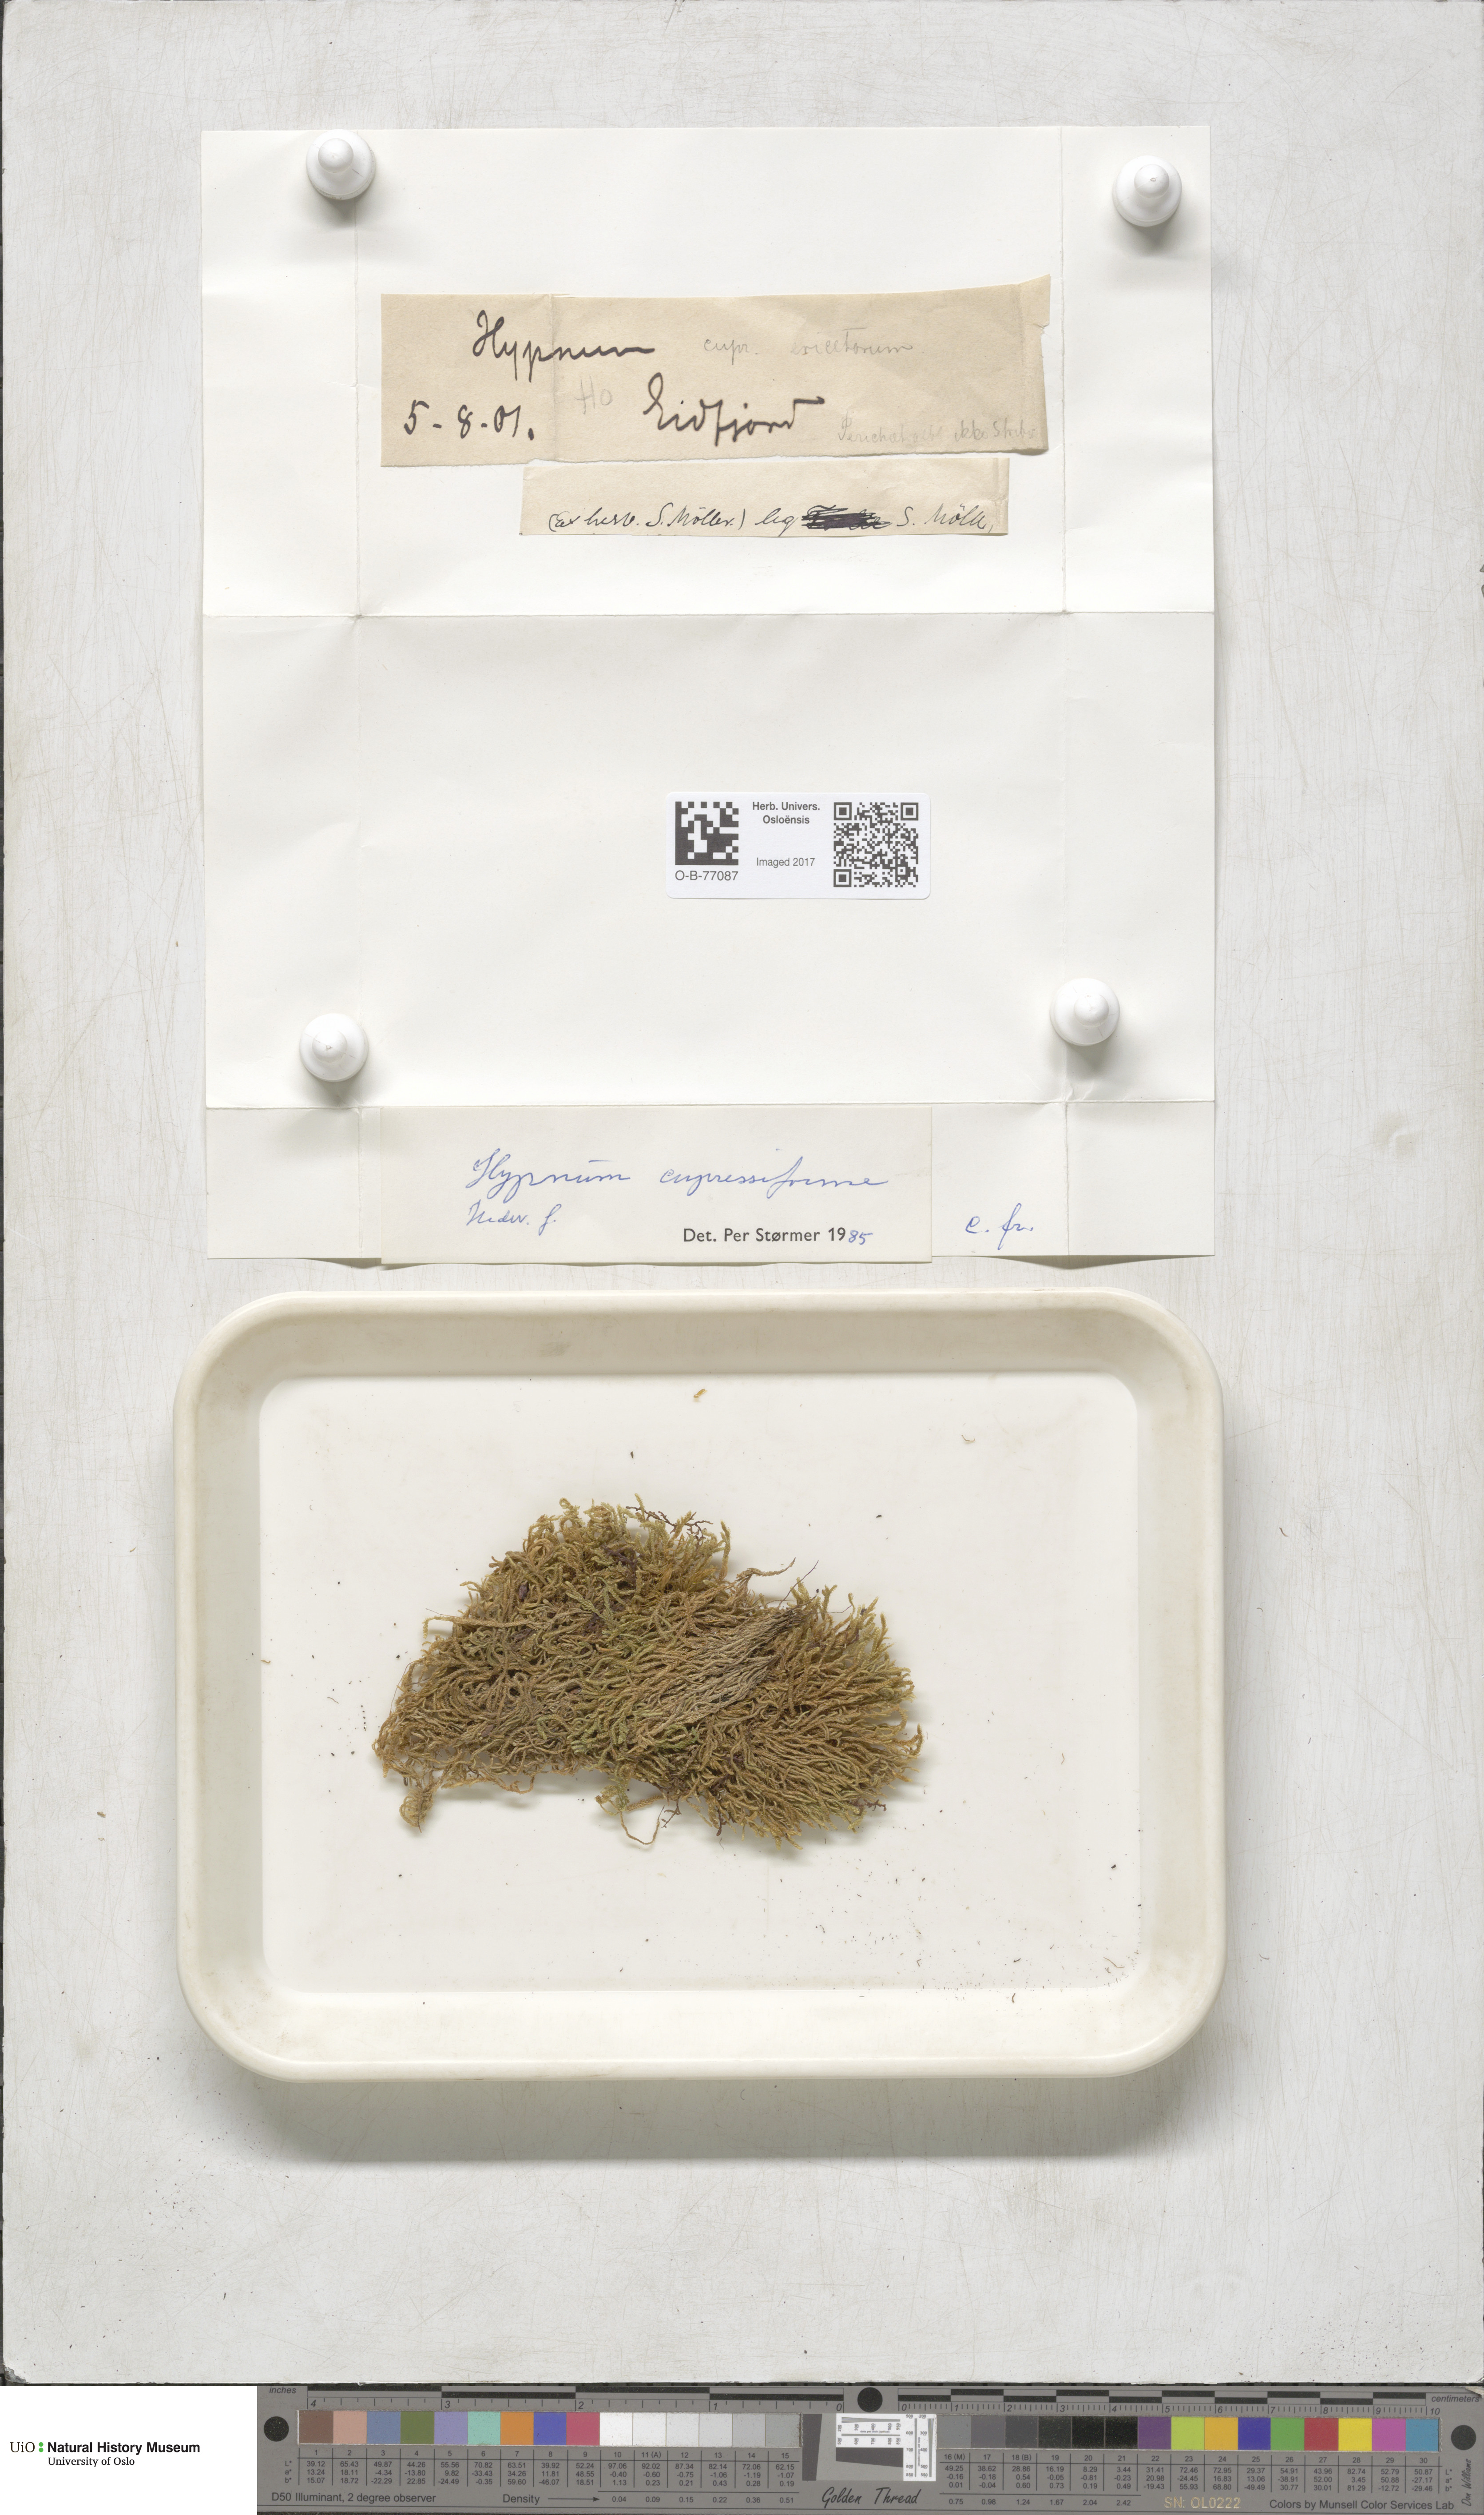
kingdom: Plantae
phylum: Bryophyta
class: Bryopsida
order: Hypnales
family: Hypnaceae
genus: Hypnum
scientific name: Hypnum cupressiforme
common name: Cypress-leaved plait-moss
